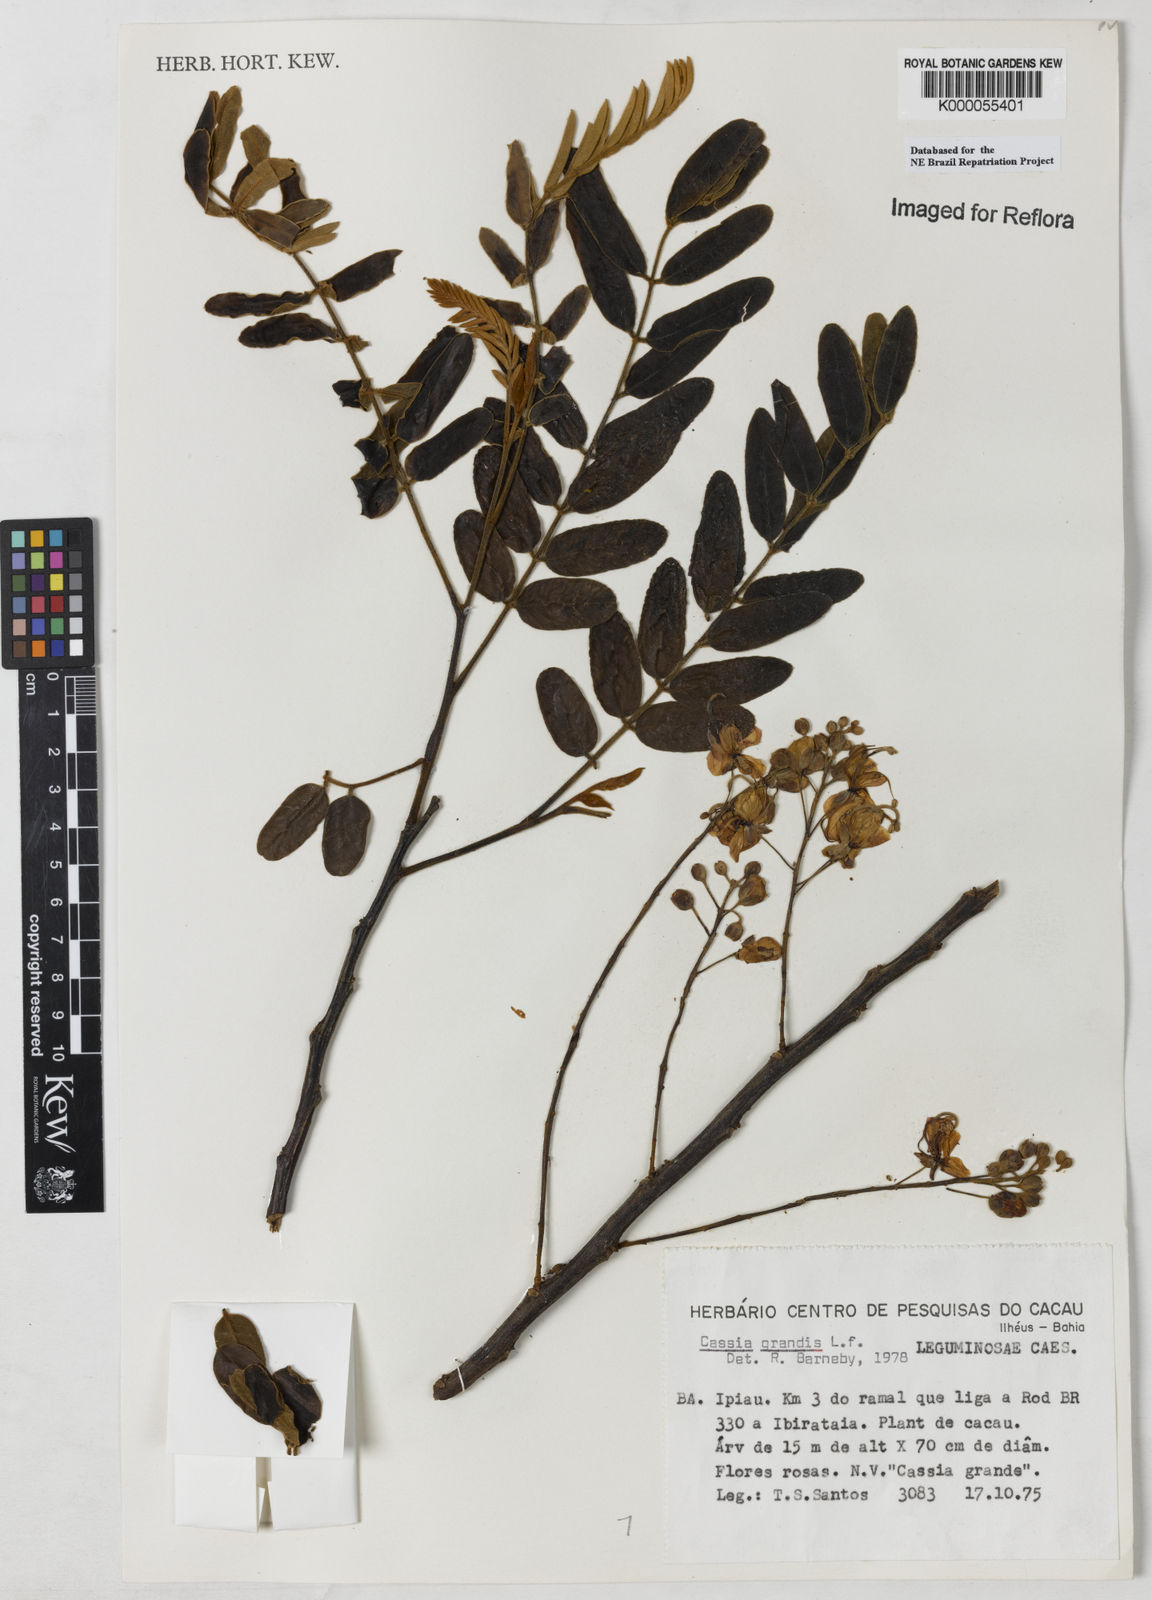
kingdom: Plantae
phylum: Tracheophyta
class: Magnoliopsida
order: Fabales
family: Fabaceae
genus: Cassia
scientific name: Cassia grandis
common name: Appleblossom cassia
